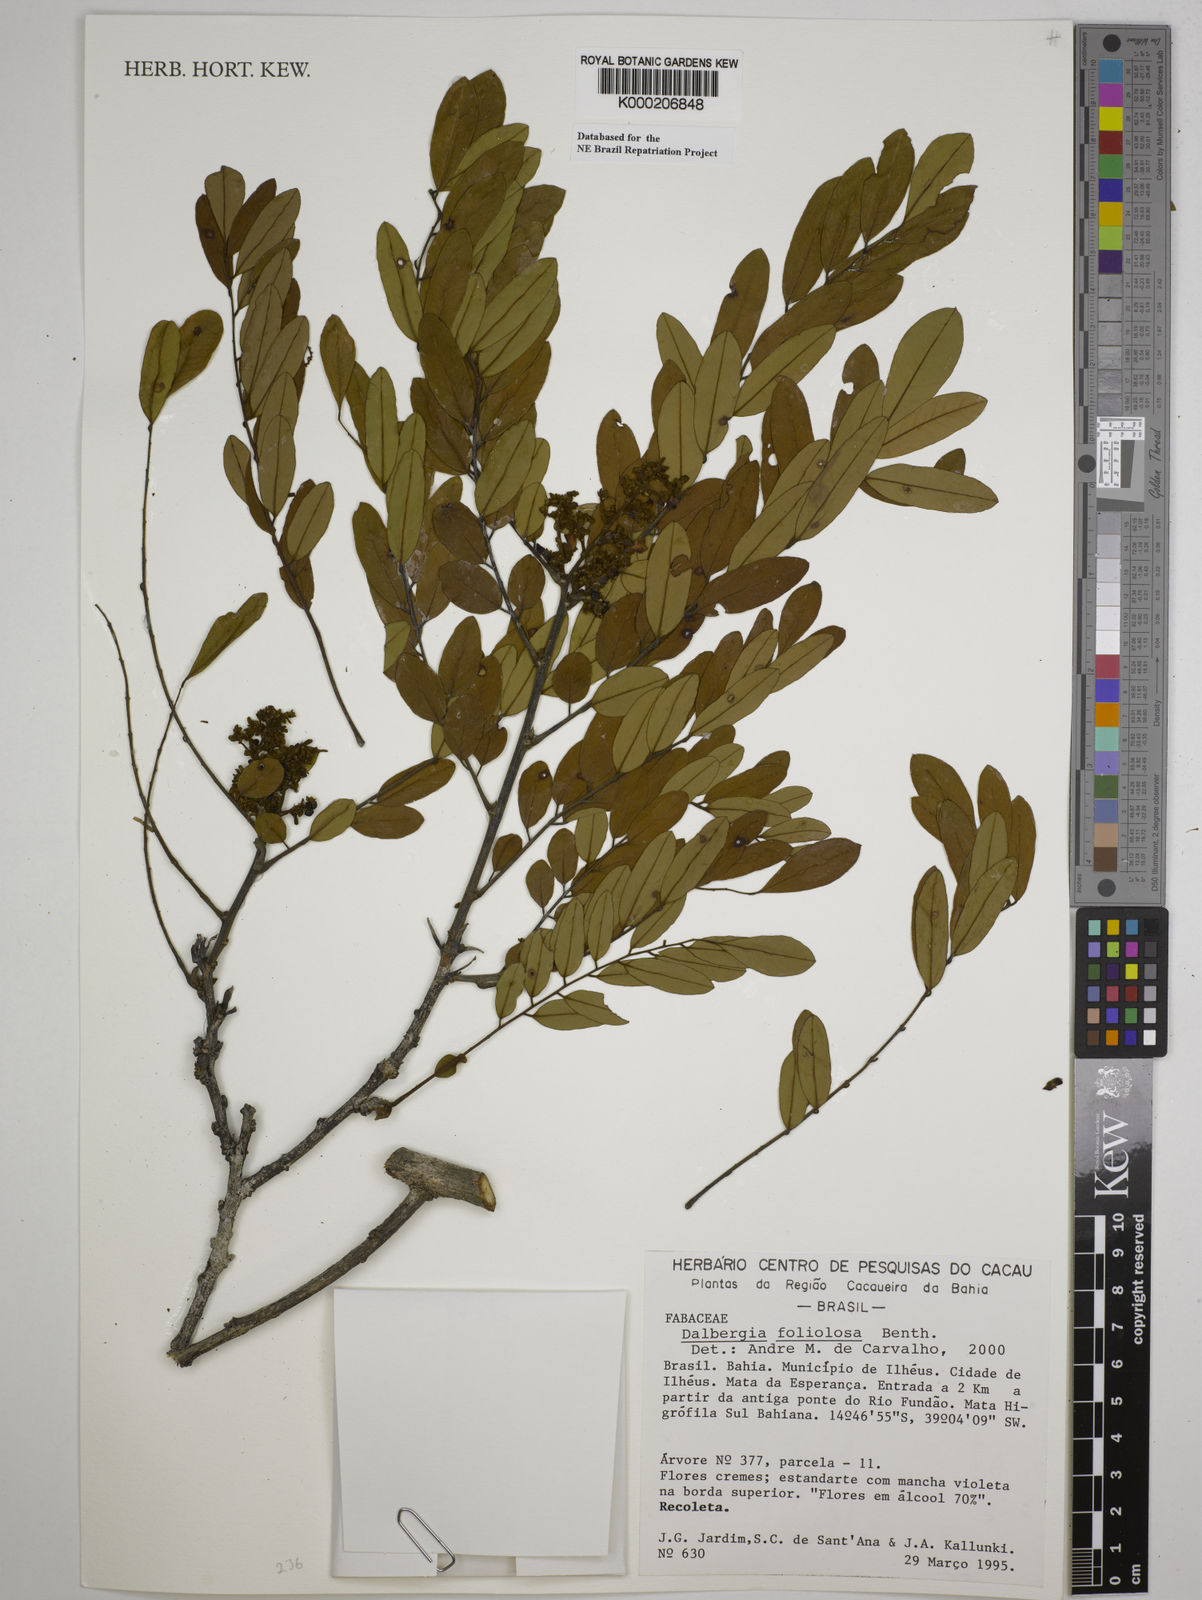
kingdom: Plantae
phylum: Tracheophyta
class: Magnoliopsida
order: Fabales
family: Fabaceae
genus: Dalbergia
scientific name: Dalbergia foliolosa
